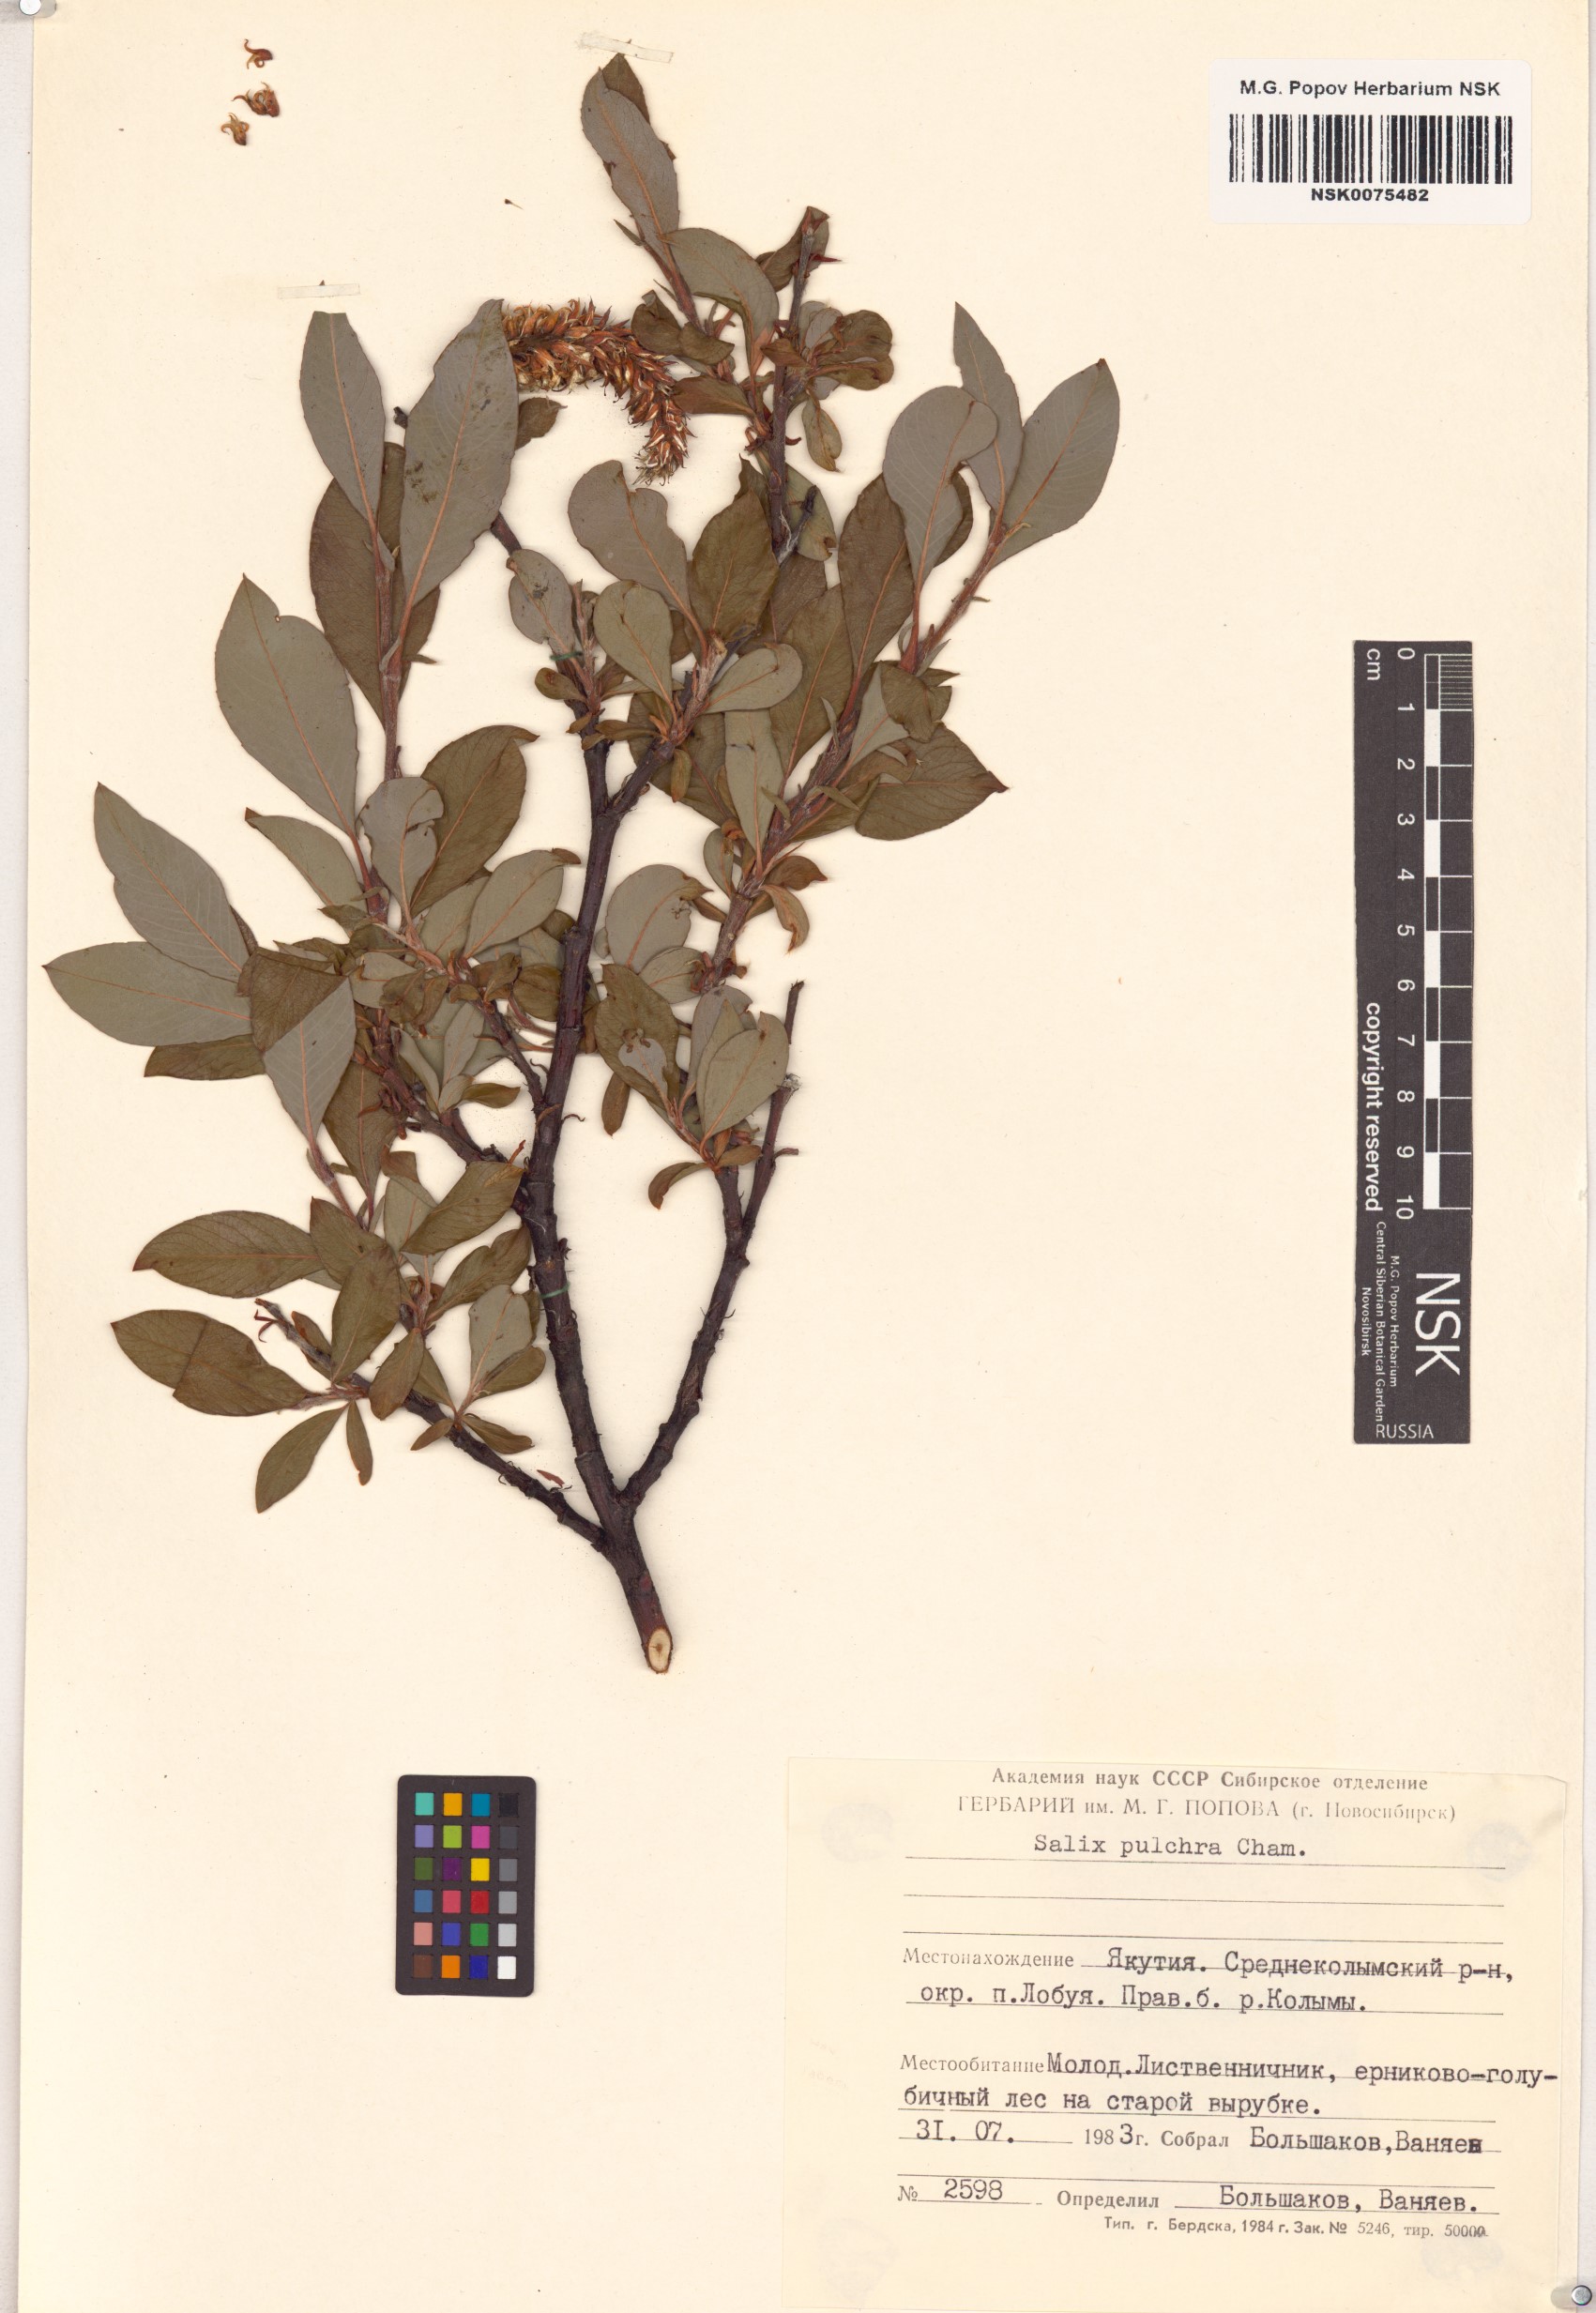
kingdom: Plantae
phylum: Tracheophyta
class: Magnoliopsida
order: Malpighiales
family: Salicaceae
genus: Salix
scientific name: Salix pulchra
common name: Diamond-leaved willow
